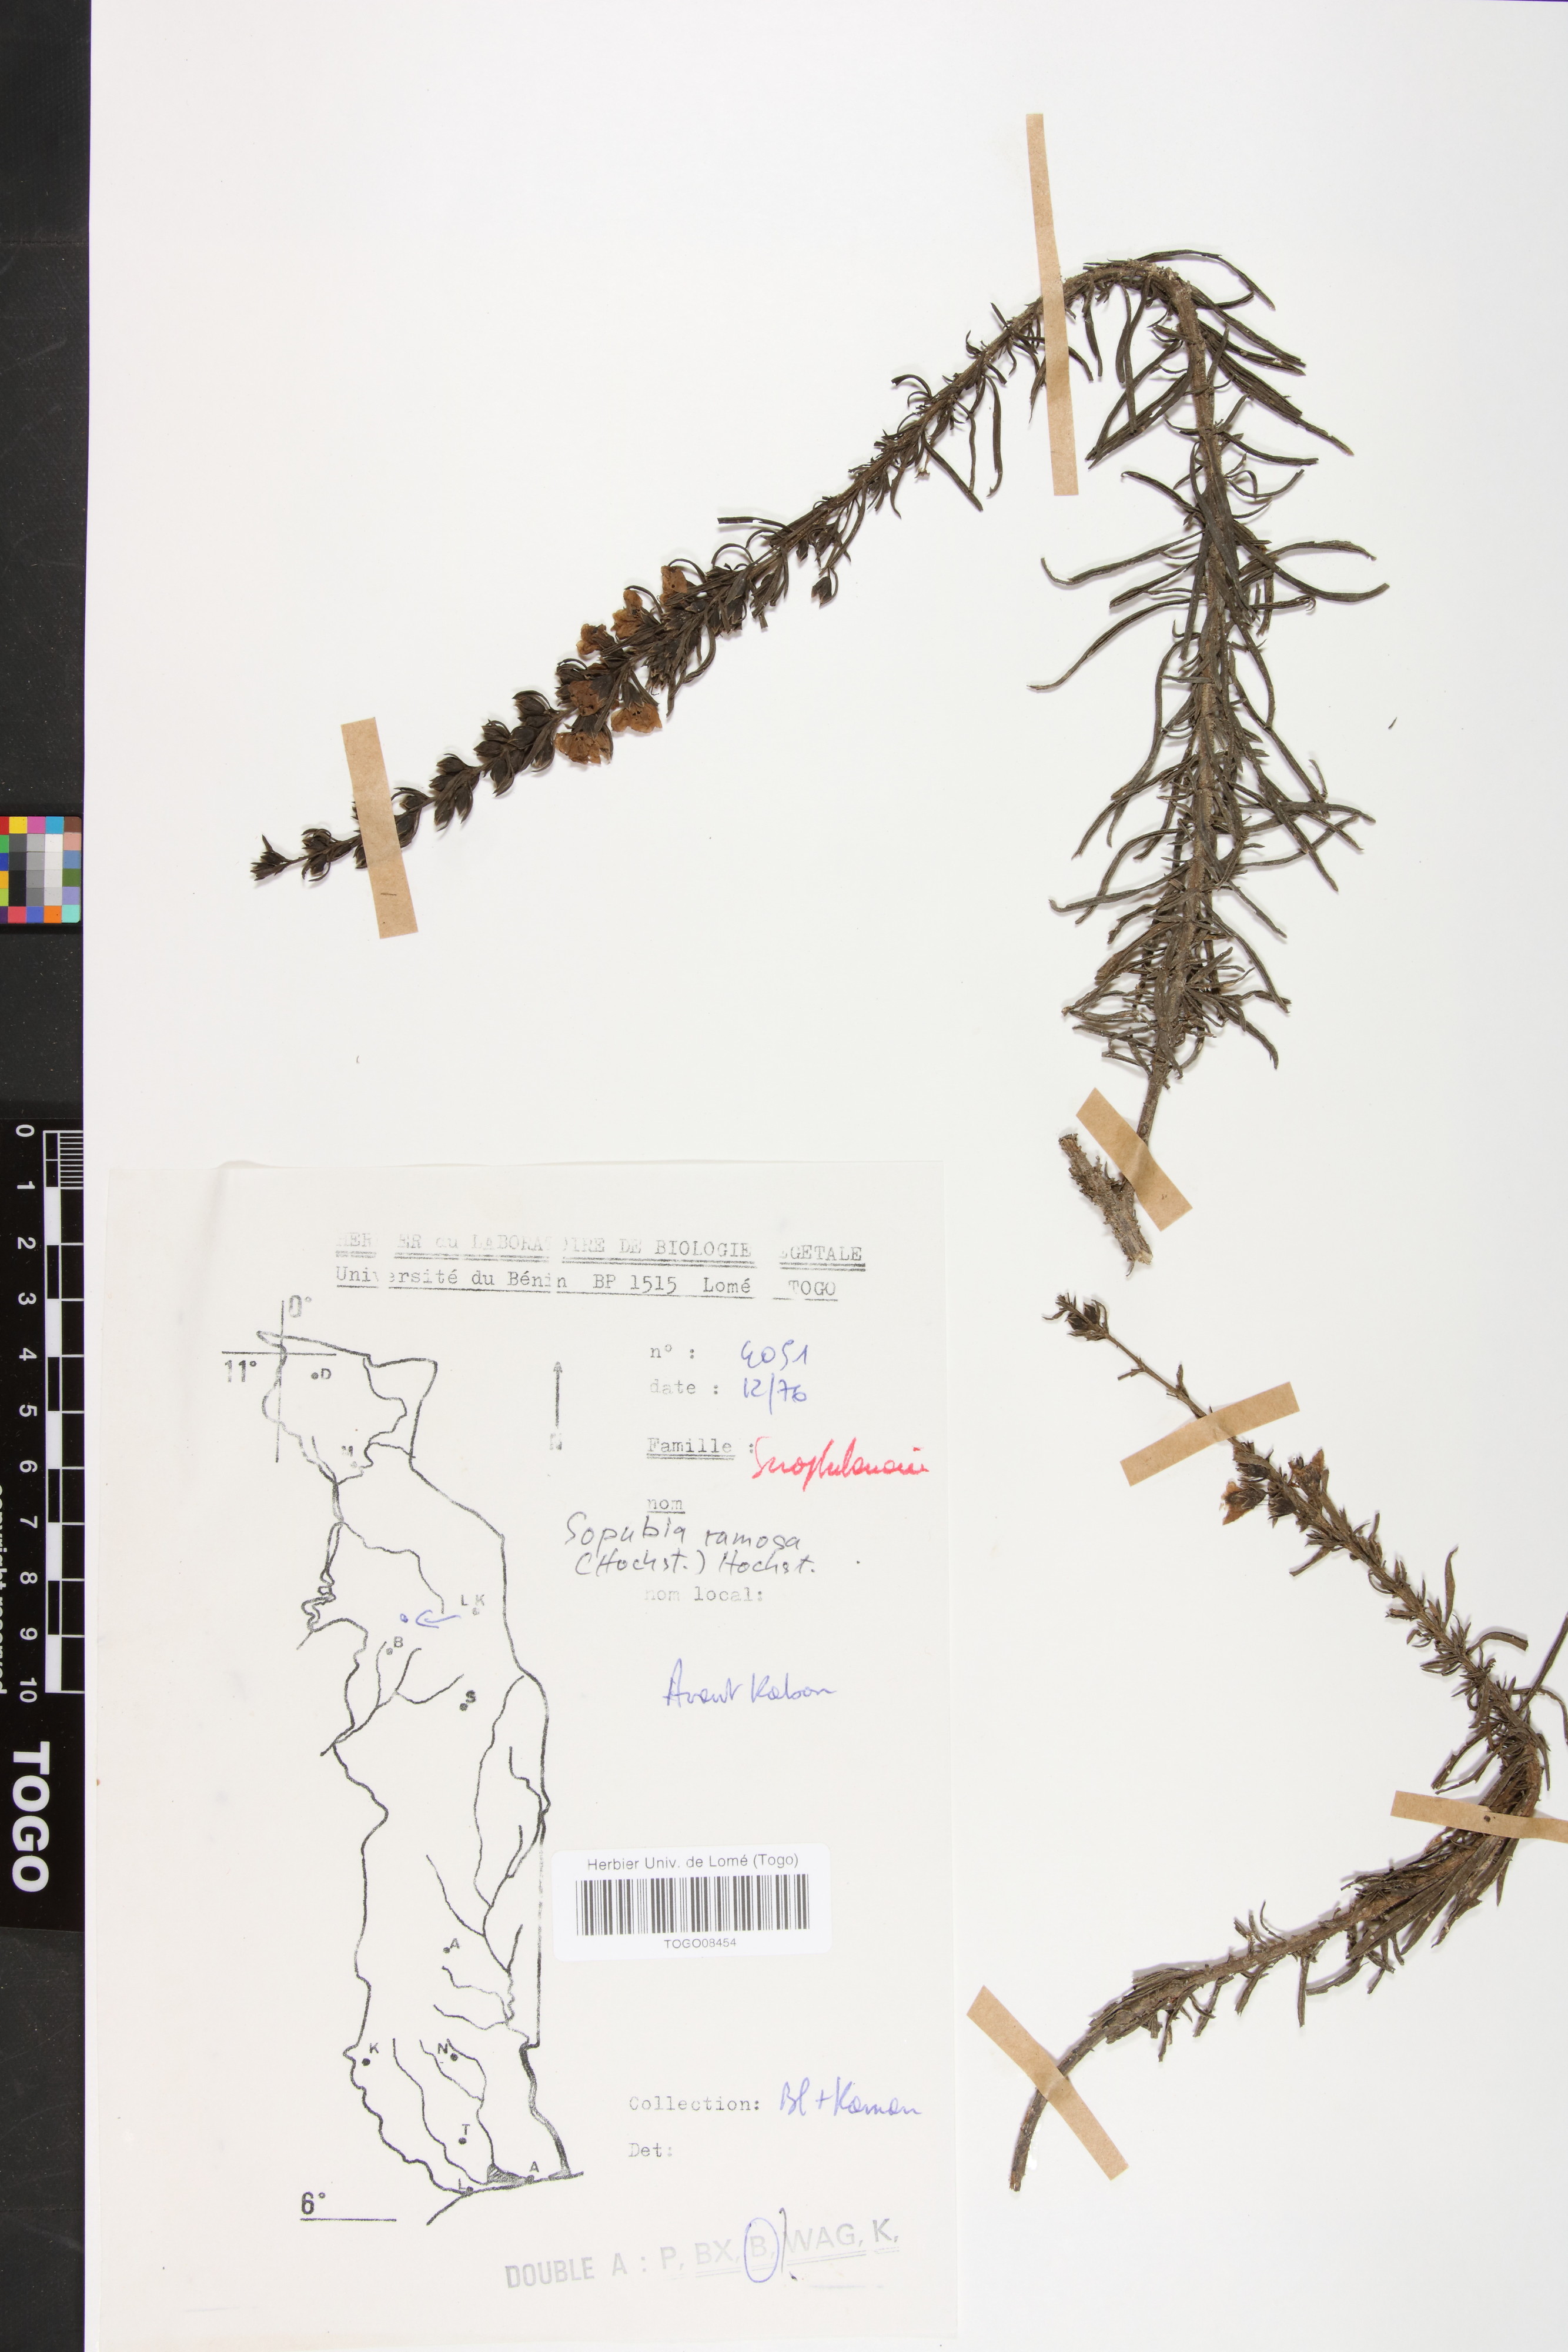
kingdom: Plantae
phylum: Tracheophyta
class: Magnoliopsida
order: Lamiales
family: Orobanchaceae
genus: Sopubia
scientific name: Sopubia ramosa
